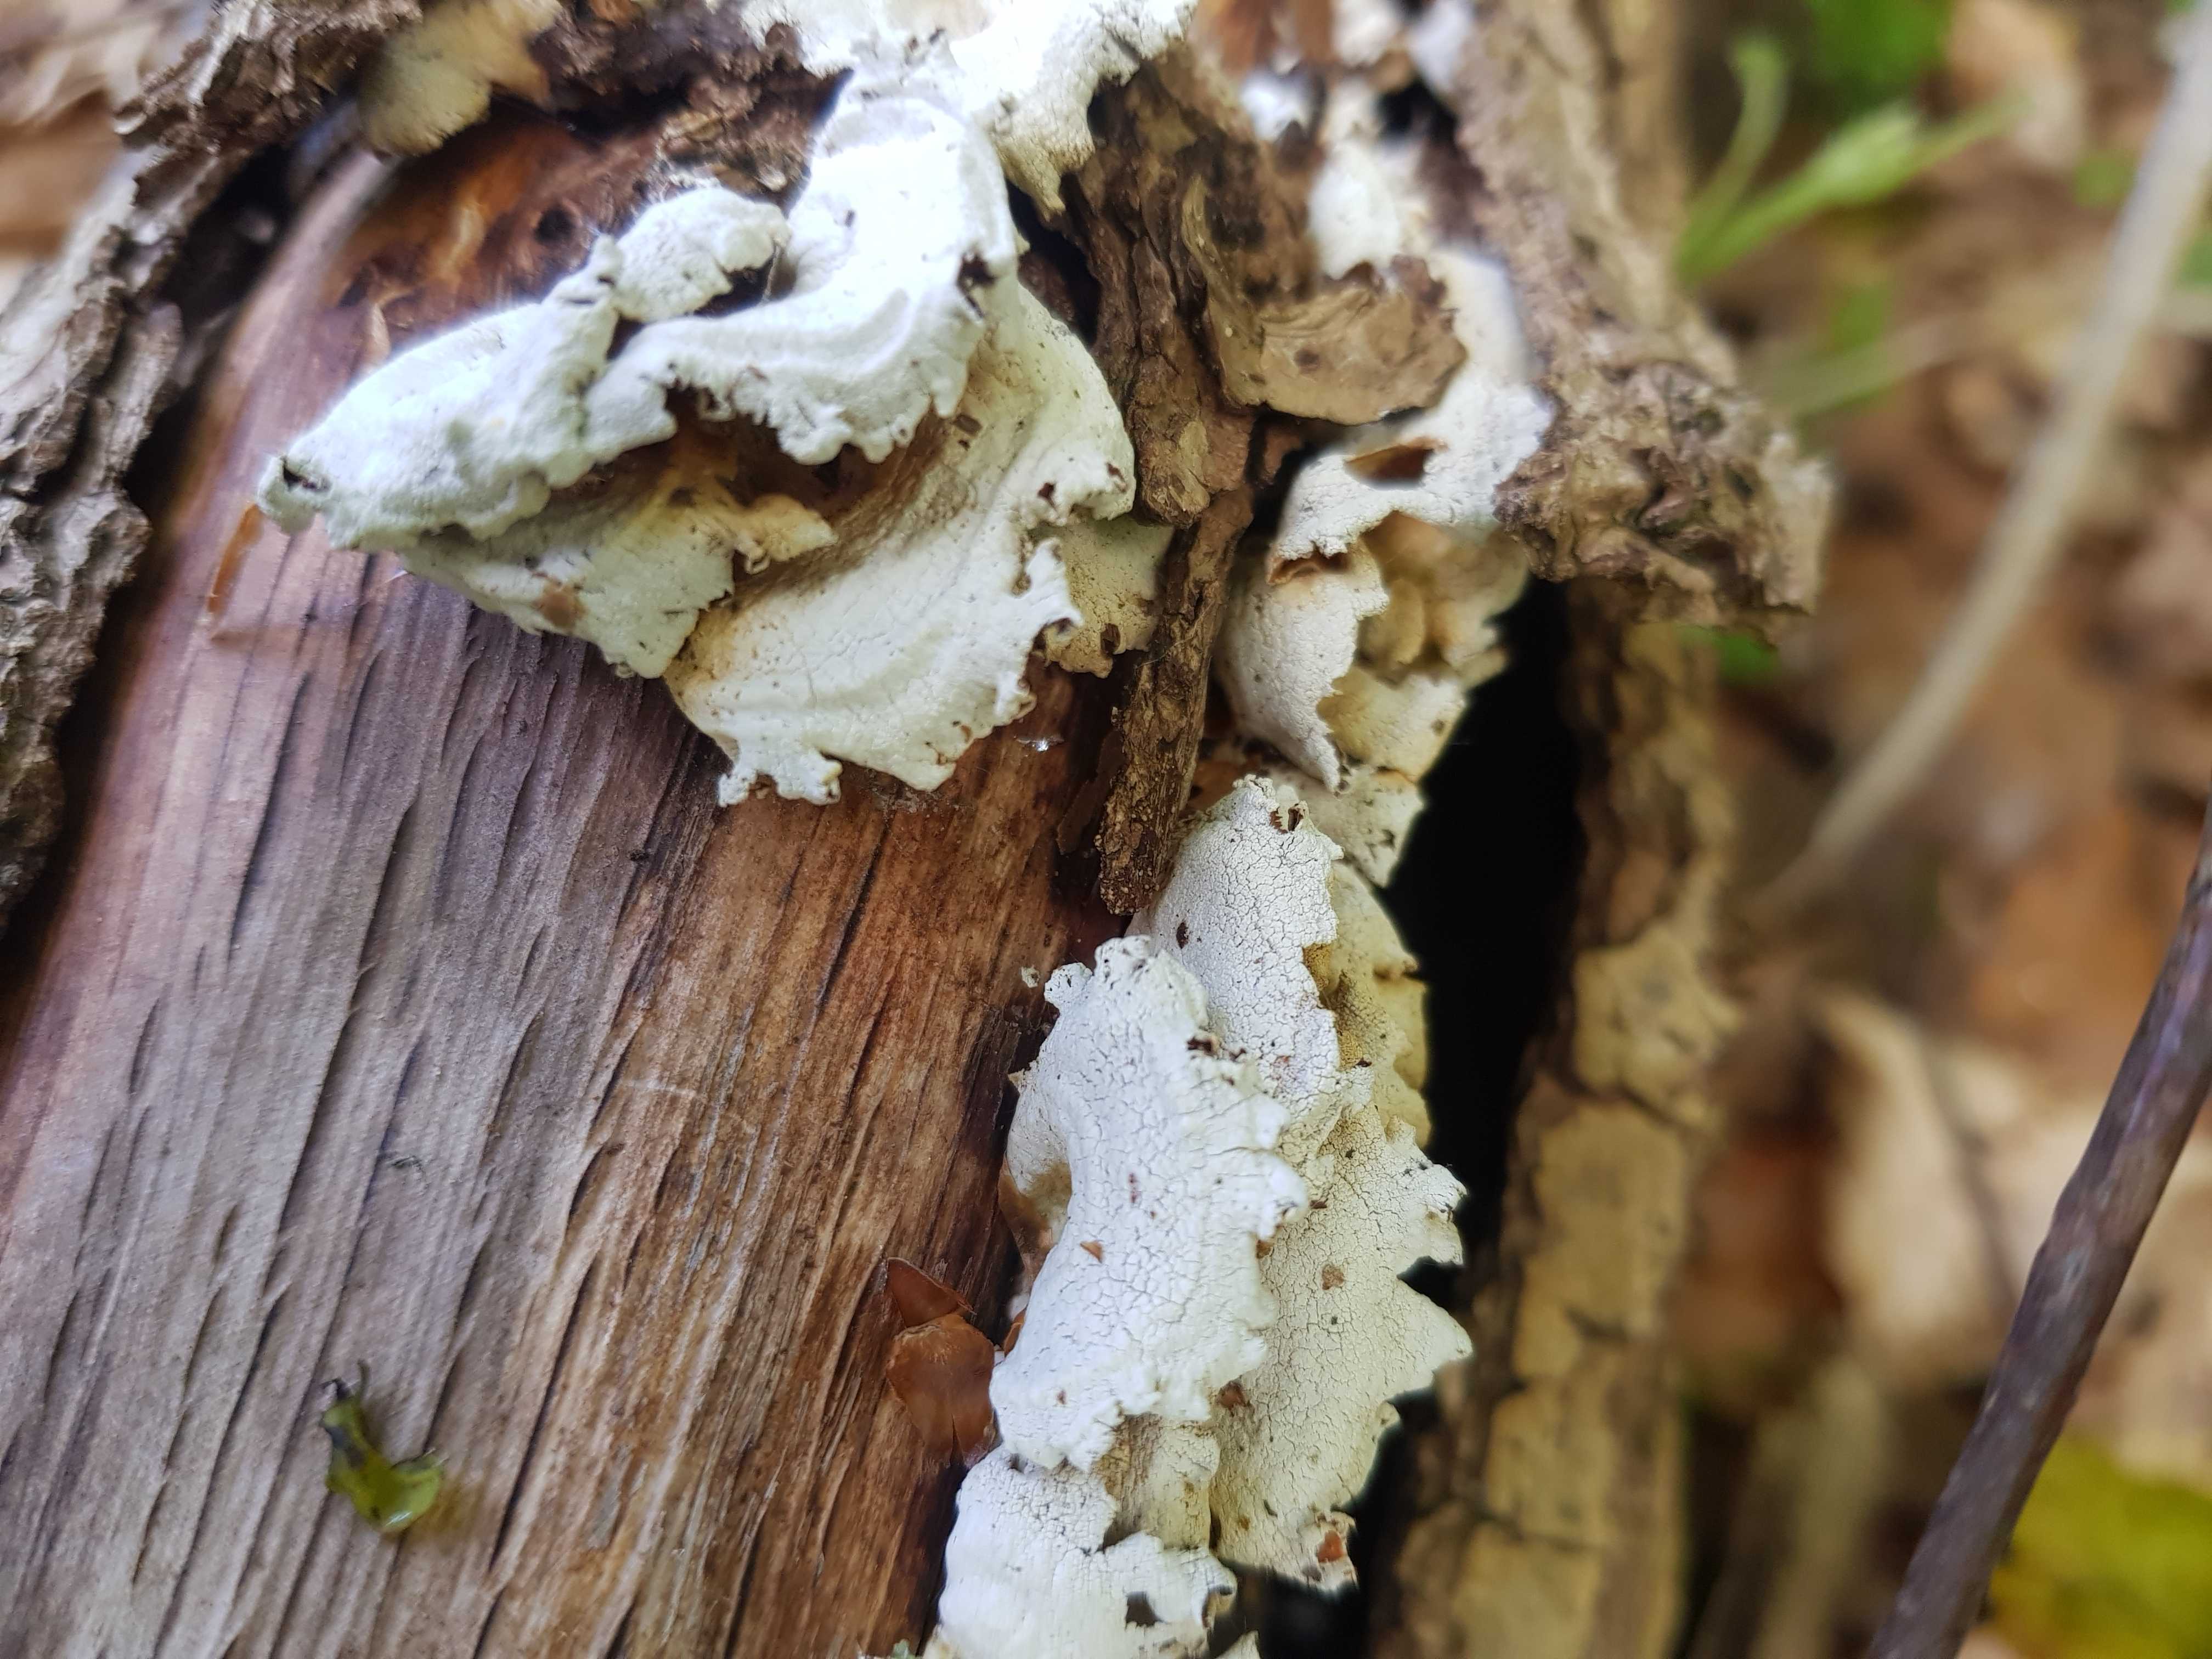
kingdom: Fungi
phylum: Basidiomycota
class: Agaricomycetes
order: Agaricales
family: Mycenaceae
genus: Panellus
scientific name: Panellus stipticus
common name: kliddet epaulethat
